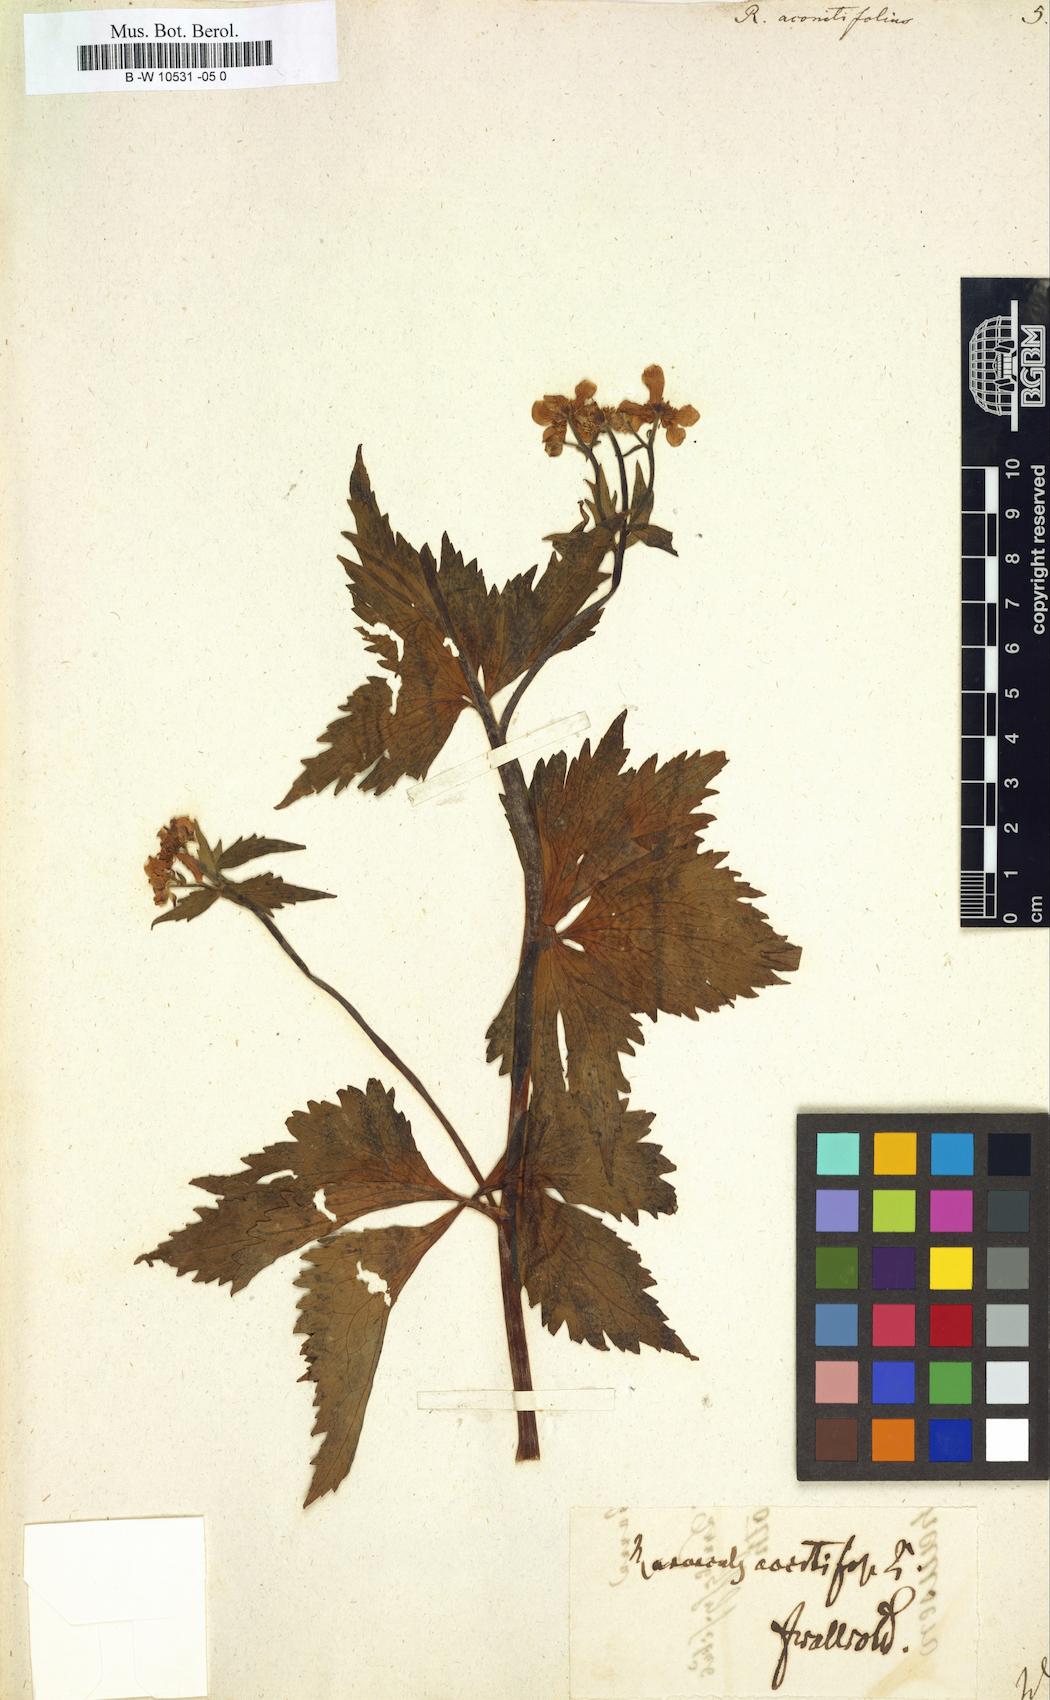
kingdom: Plantae
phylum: Tracheophyta
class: Magnoliopsida
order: Ranunculales
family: Ranunculaceae
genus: Ranunculus
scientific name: Ranunculus aconitifolius
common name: Aconite-leaved buttercup
